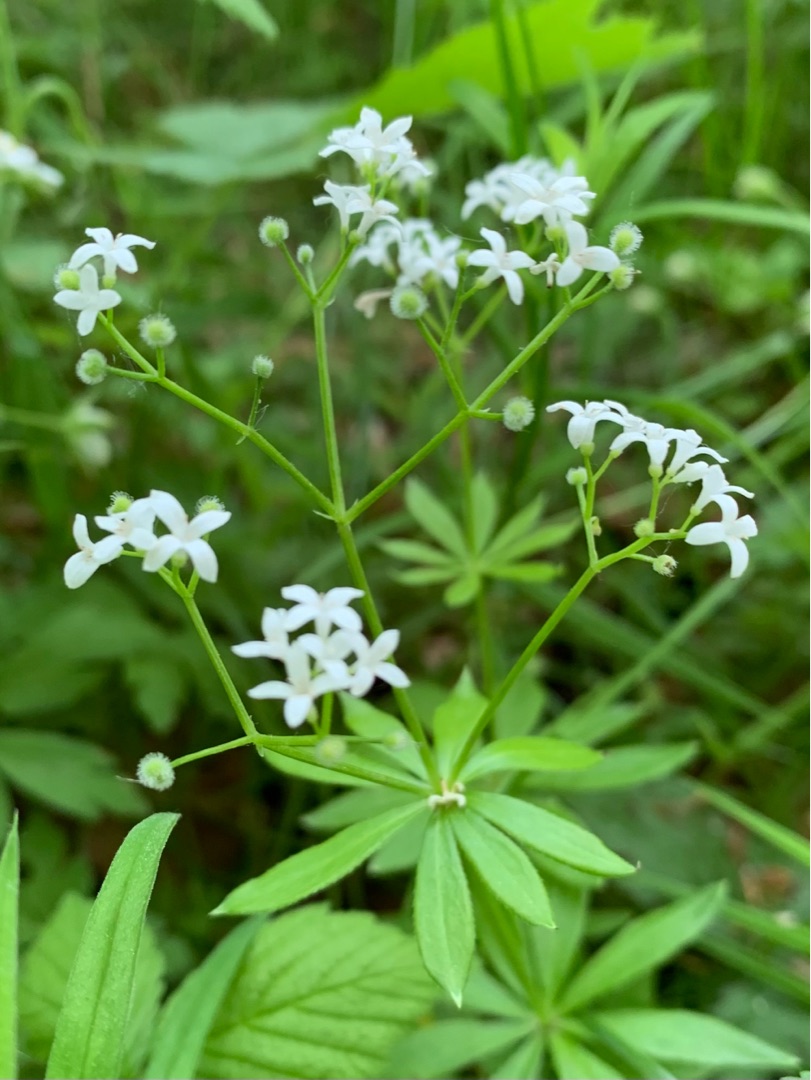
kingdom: Plantae
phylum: Tracheophyta
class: Magnoliopsida
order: Gentianales
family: Rubiaceae
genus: Galium
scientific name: Galium odoratum
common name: Skovmærke
